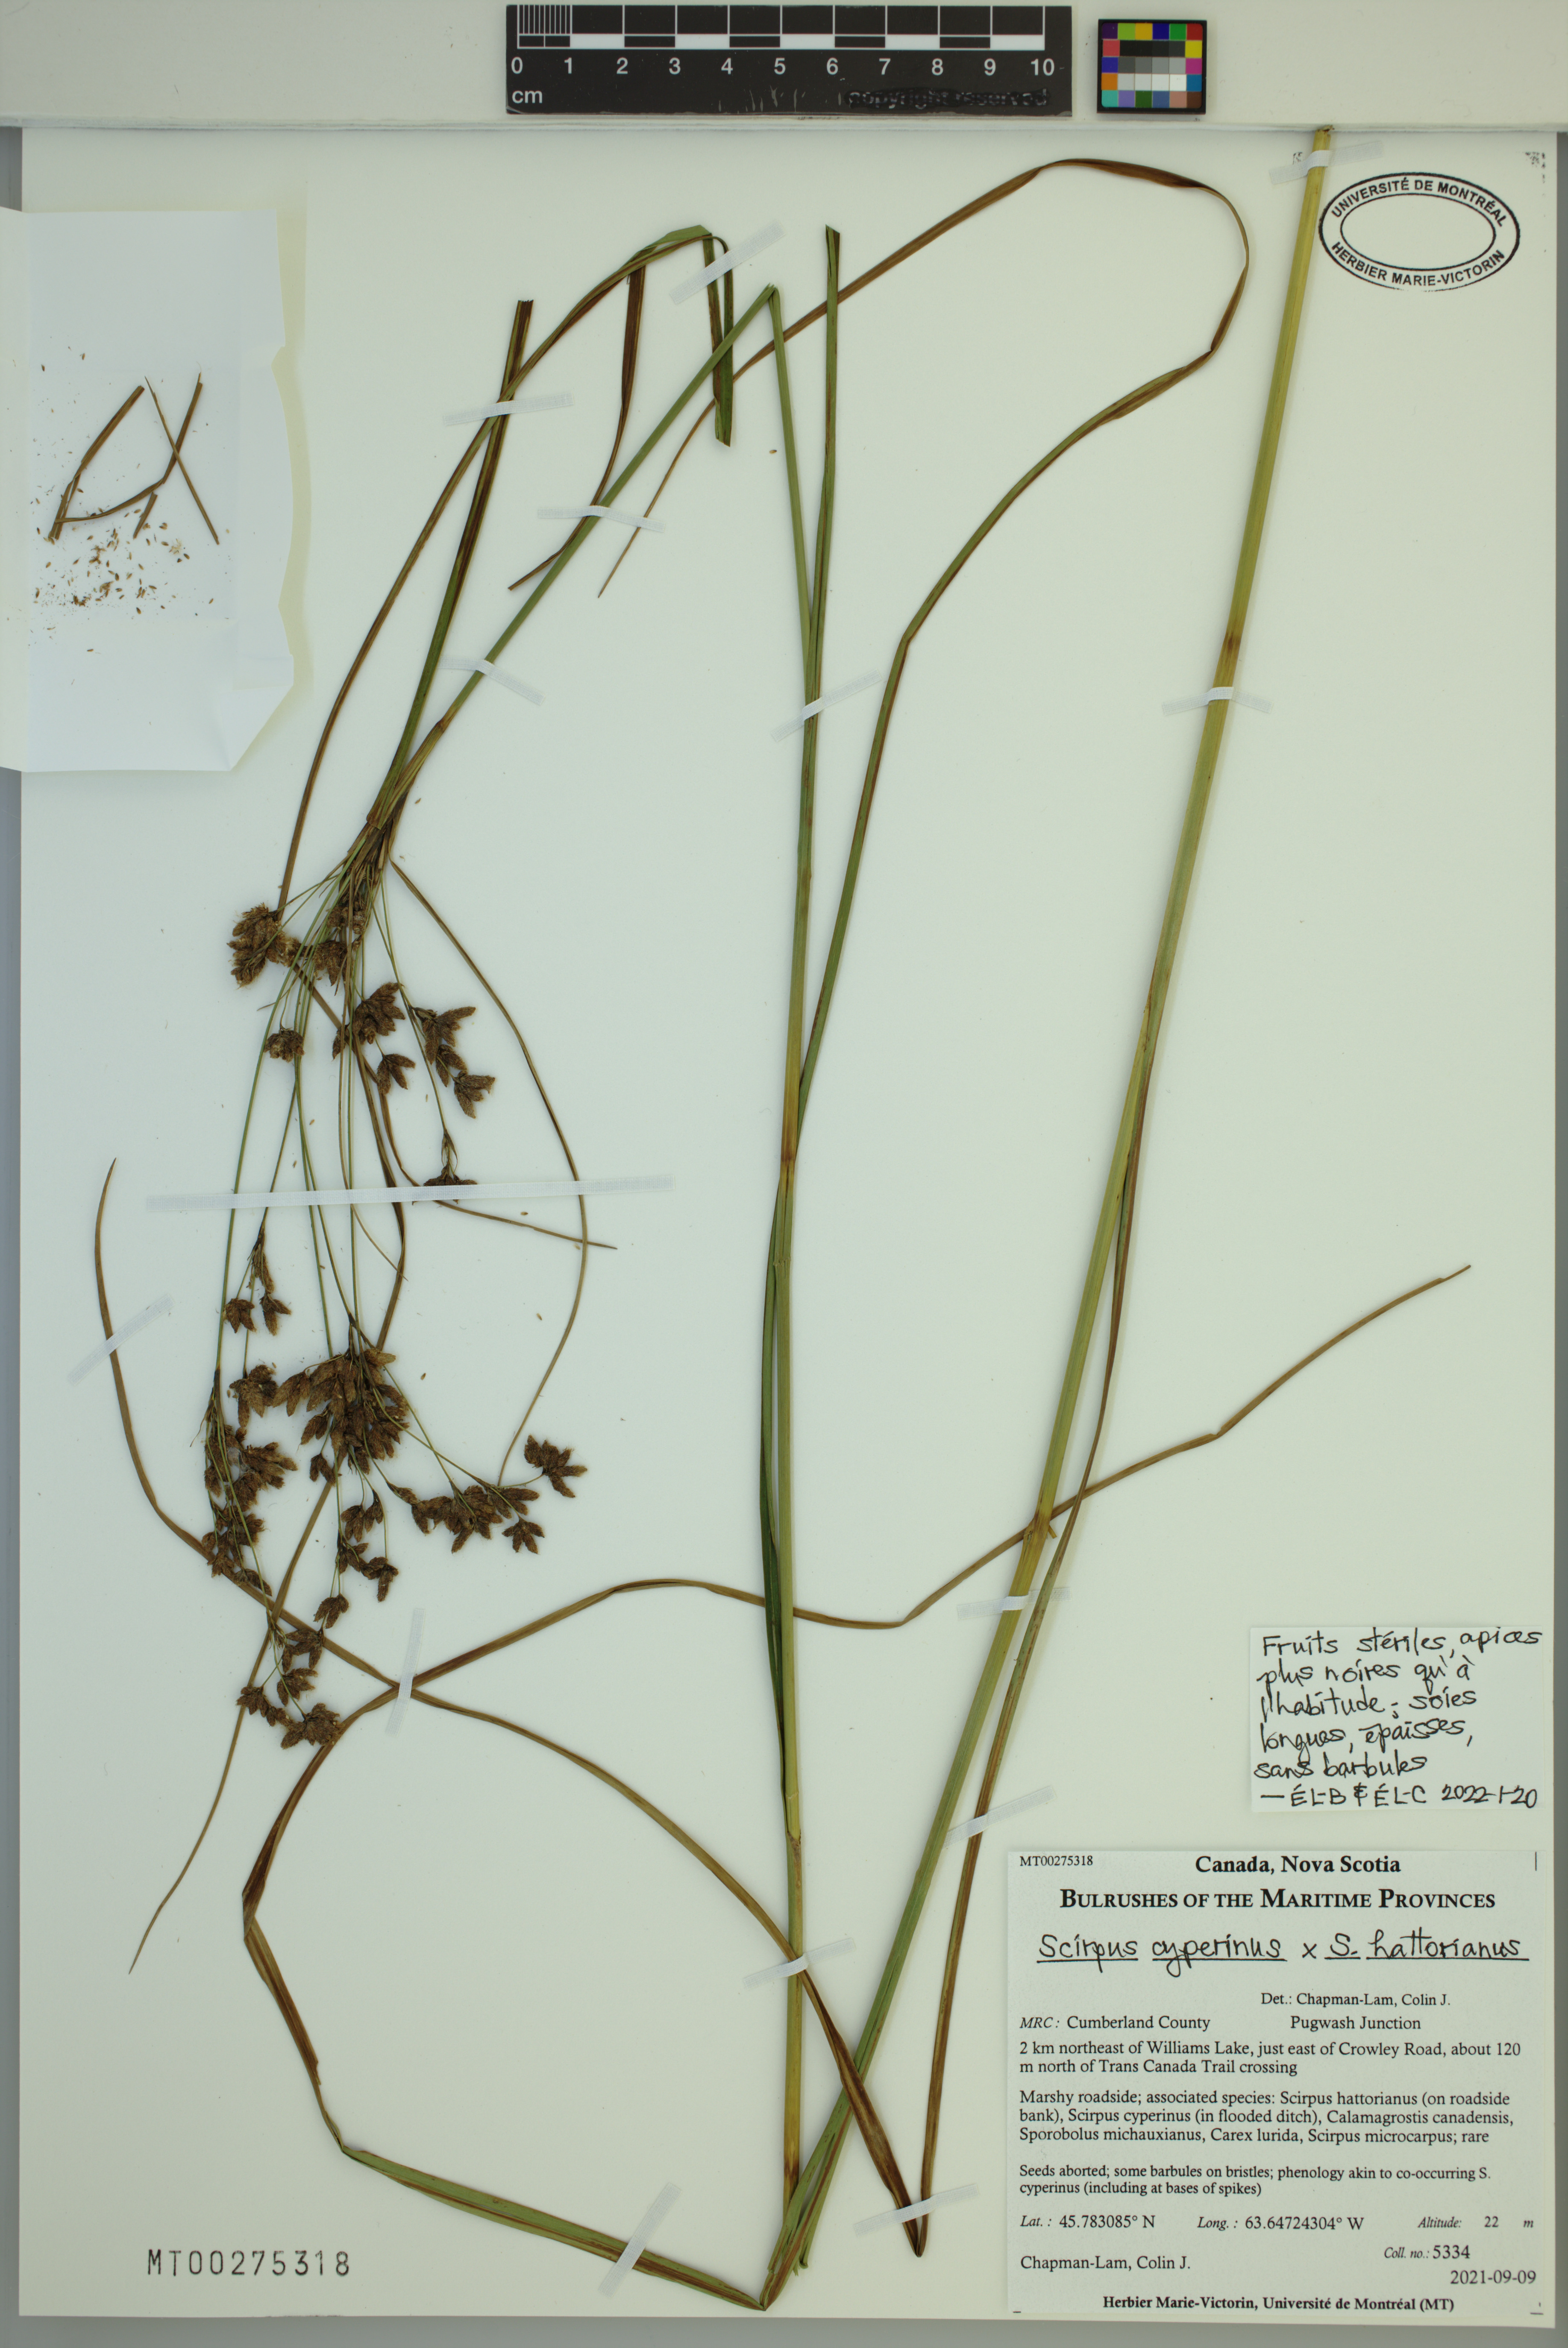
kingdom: Plantae
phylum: Tracheophyta
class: Liliopsida
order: Poales
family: Cyperaceae
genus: Scirpus
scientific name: Scirpus cyperinus
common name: Black-sheathed bulrush
